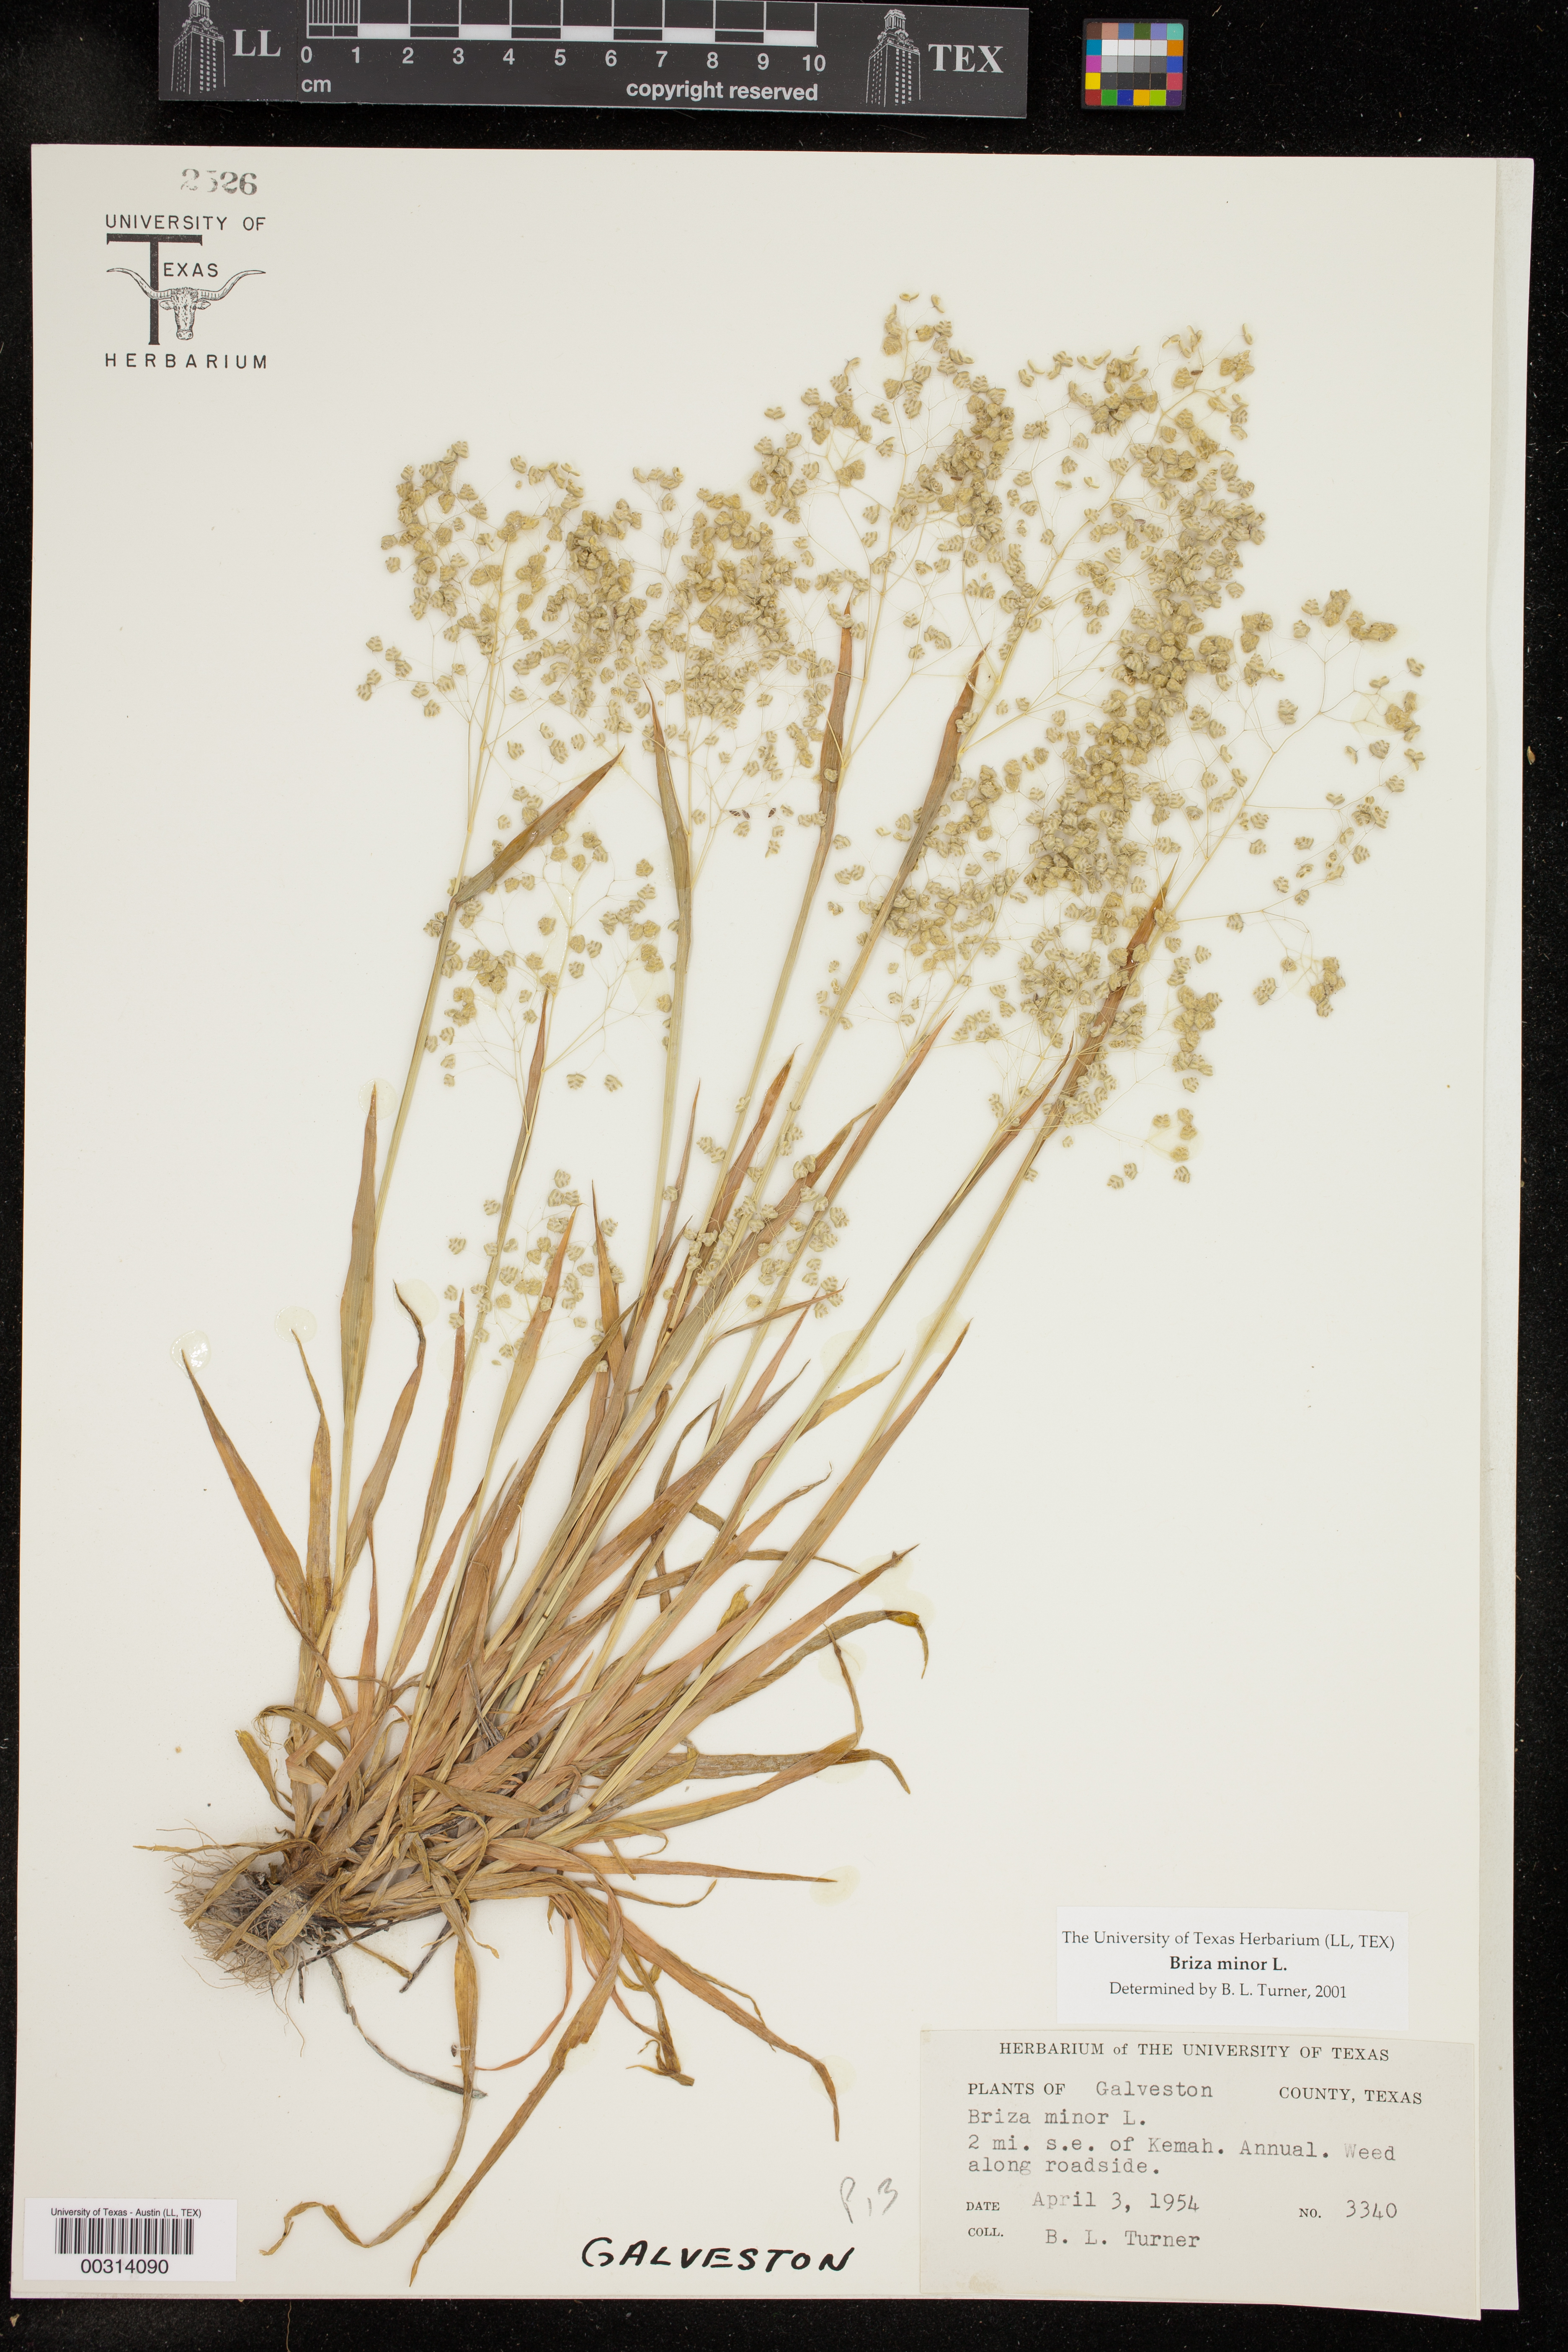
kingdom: Plantae
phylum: Tracheophyta
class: Liliopsida
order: Poales
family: Poaceae
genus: Briza
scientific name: Briza minor
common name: Lesser quaking-grass
